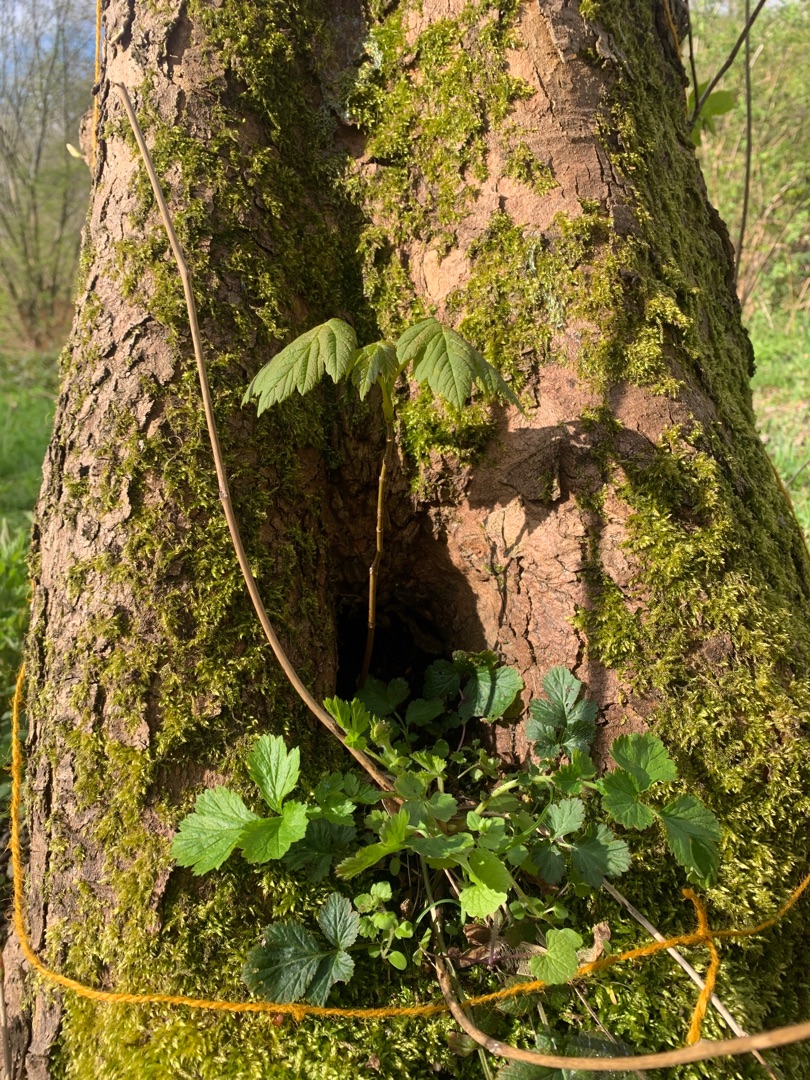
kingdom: Plantae
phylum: Bryophyta
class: Bryopsida
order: Hypnales
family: Brachytheciaceae
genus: Brachythecium
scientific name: Brachythecium rutabulum
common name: Almindelig kortkapsel
